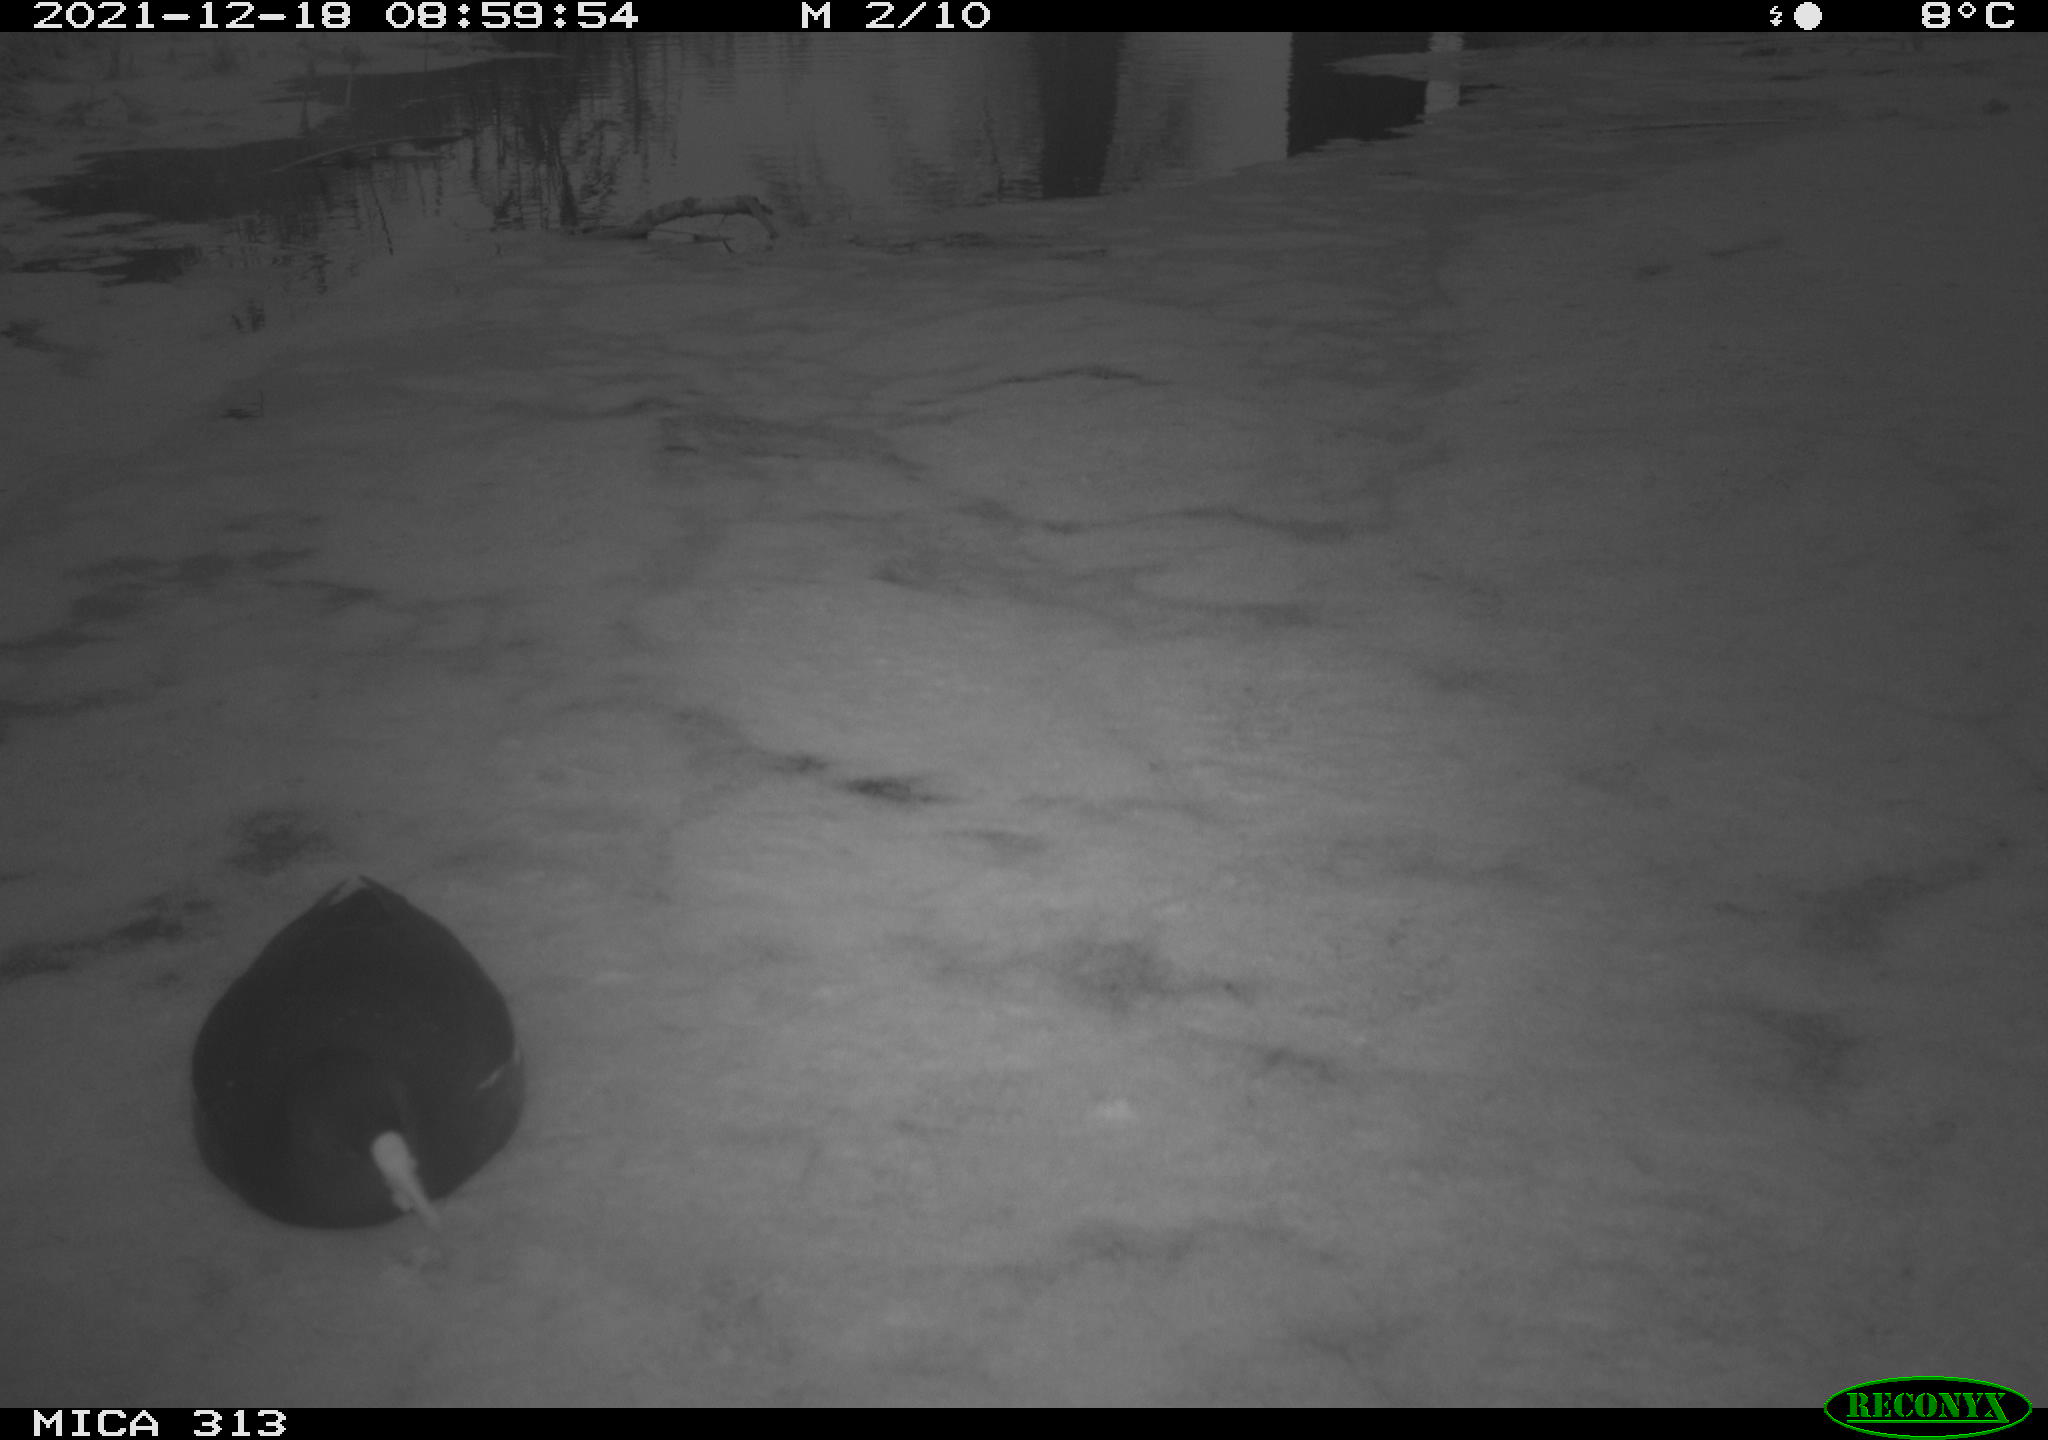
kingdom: Animalia
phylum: Chordata
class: Aves
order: Gruiformes
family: Rallidae
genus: Fulica
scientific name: Fulica atra
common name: Eurasian coot
